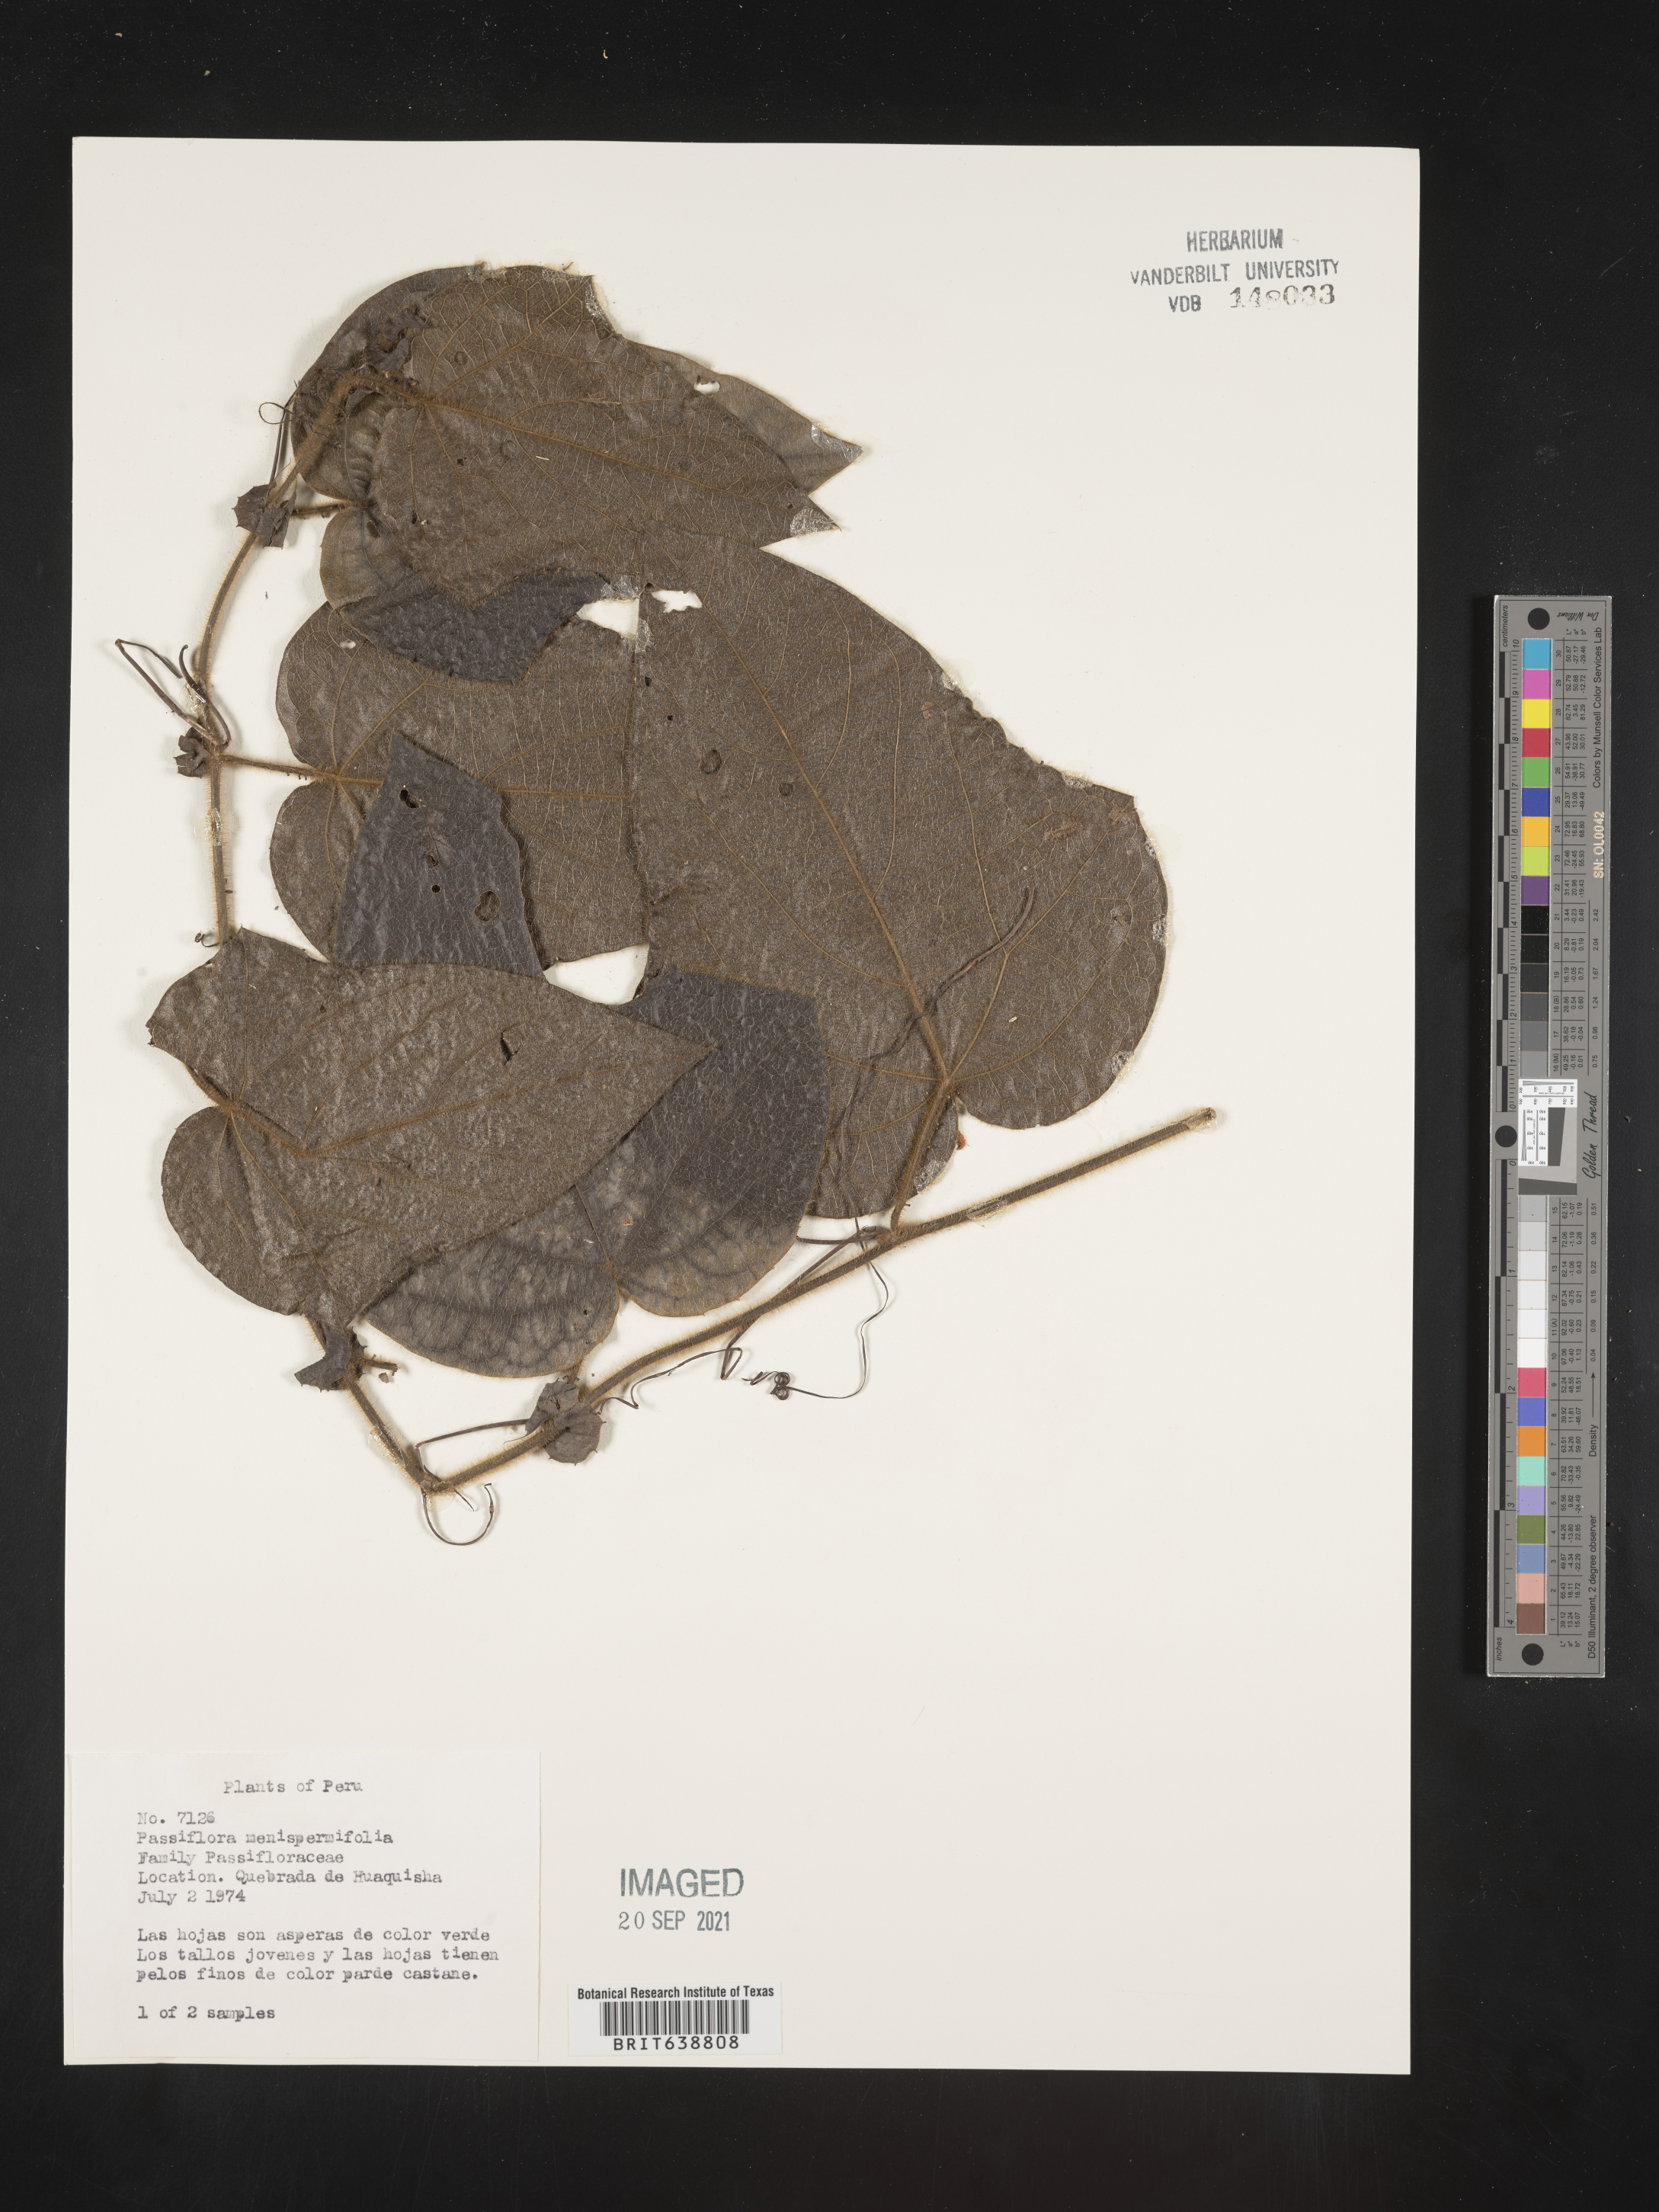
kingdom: Plantae
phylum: Tracheophyta
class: Magnoliopsida
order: Malpighiales
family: Passifloraceae
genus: Passiflora
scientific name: Passiflora
